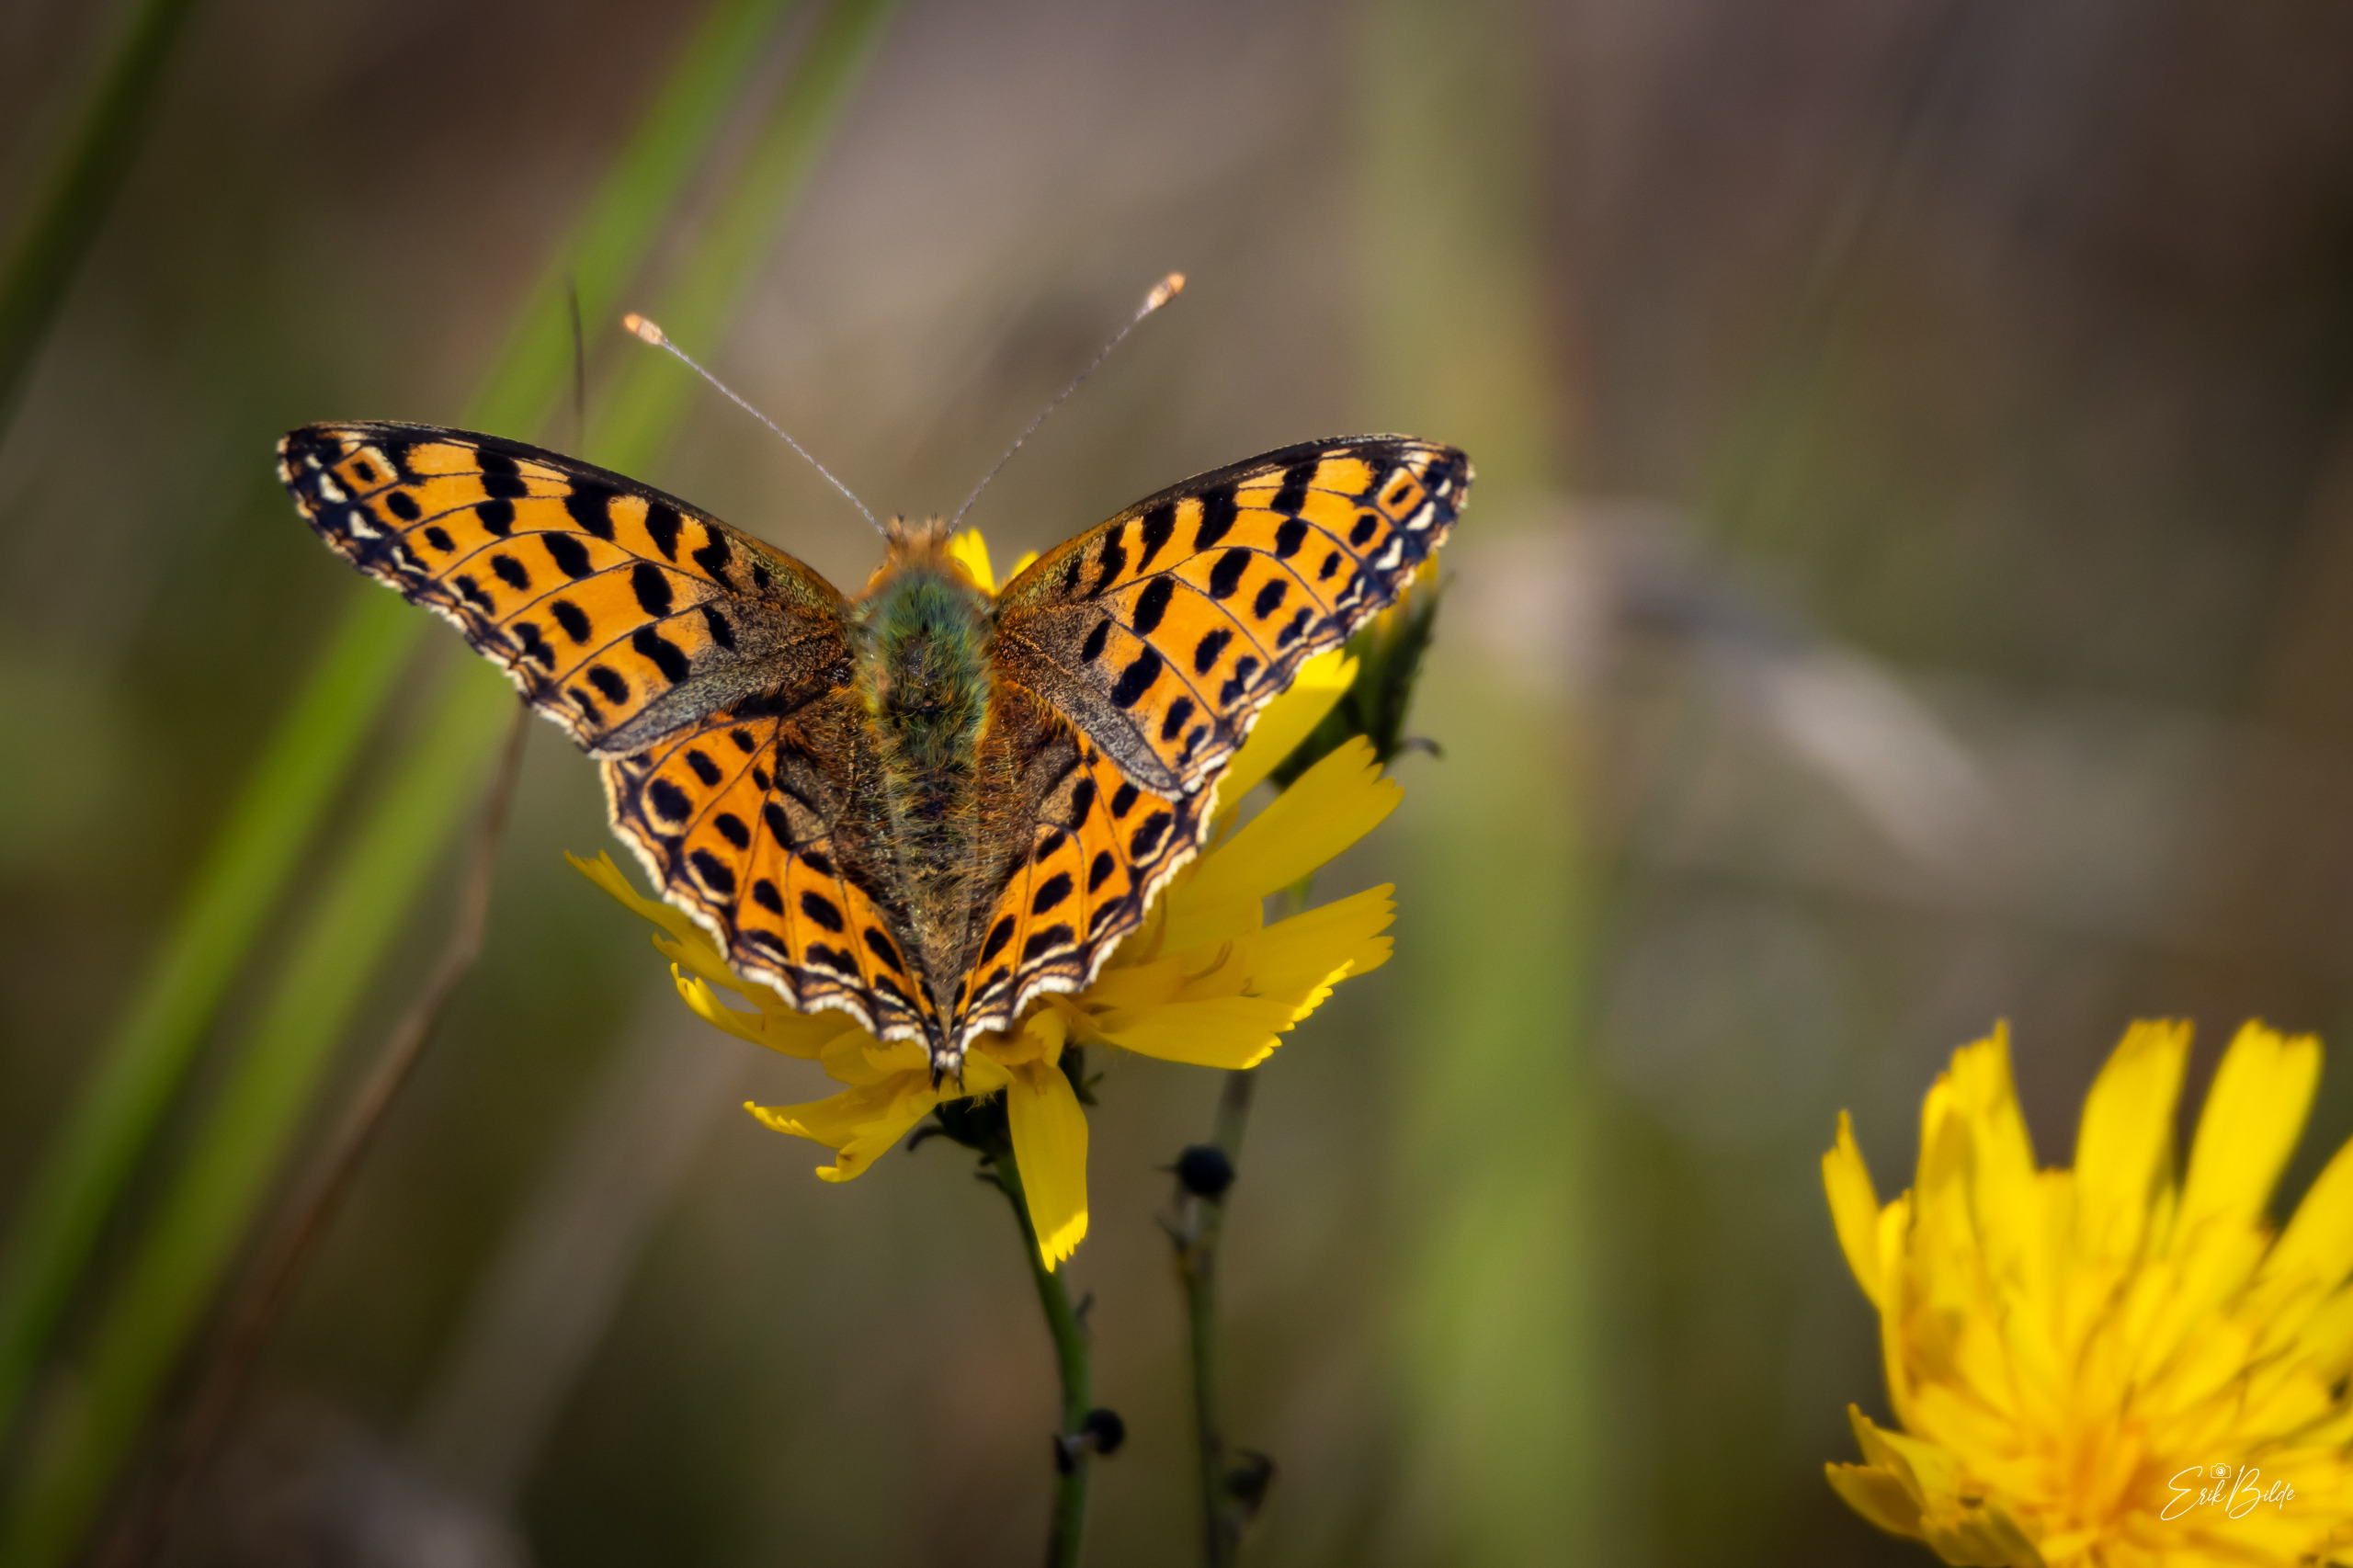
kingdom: Animalia
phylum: Arthropoda
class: Insecta
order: Lepidoptera
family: Nymphalidae
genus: Issoria
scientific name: Issoria lathonia
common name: Storplettet perlemorsommerfugl
